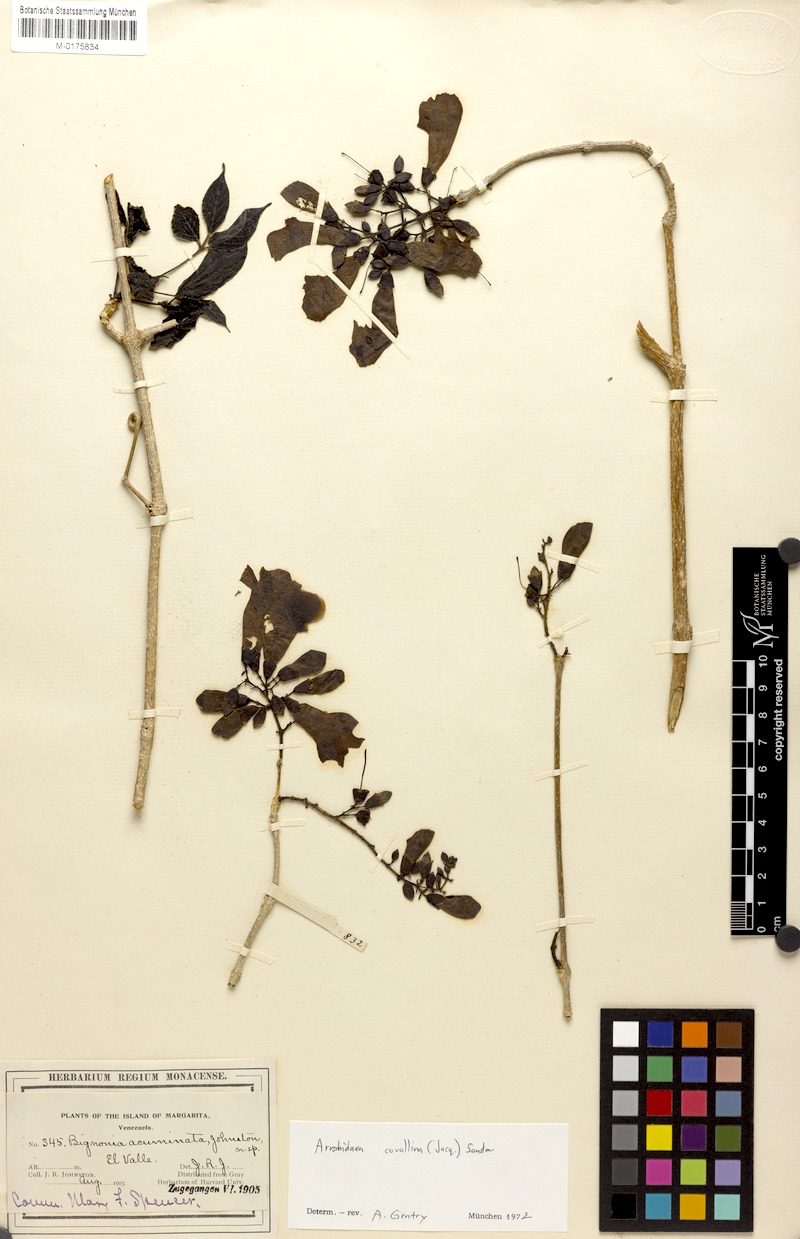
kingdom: Plantae
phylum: Tracheophyta
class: Magnoliopsida
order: Lamiales
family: Bignoniaceae
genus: Tanaecium
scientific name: Tanaecium dichotomum
